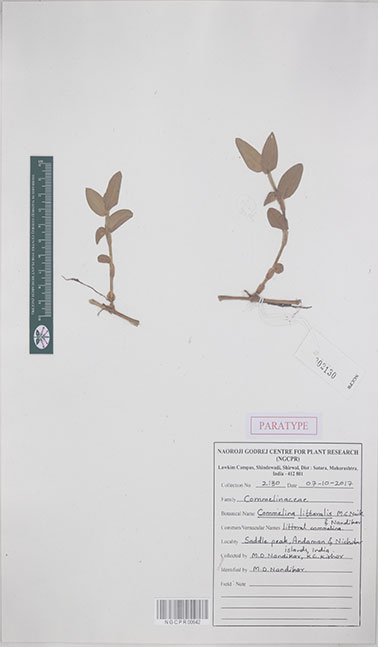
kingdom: Plantae
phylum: Tracheophyta
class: Liliopsida
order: Commelinales
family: Commelinaceae
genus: Commelina
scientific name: Commelina littoralis
